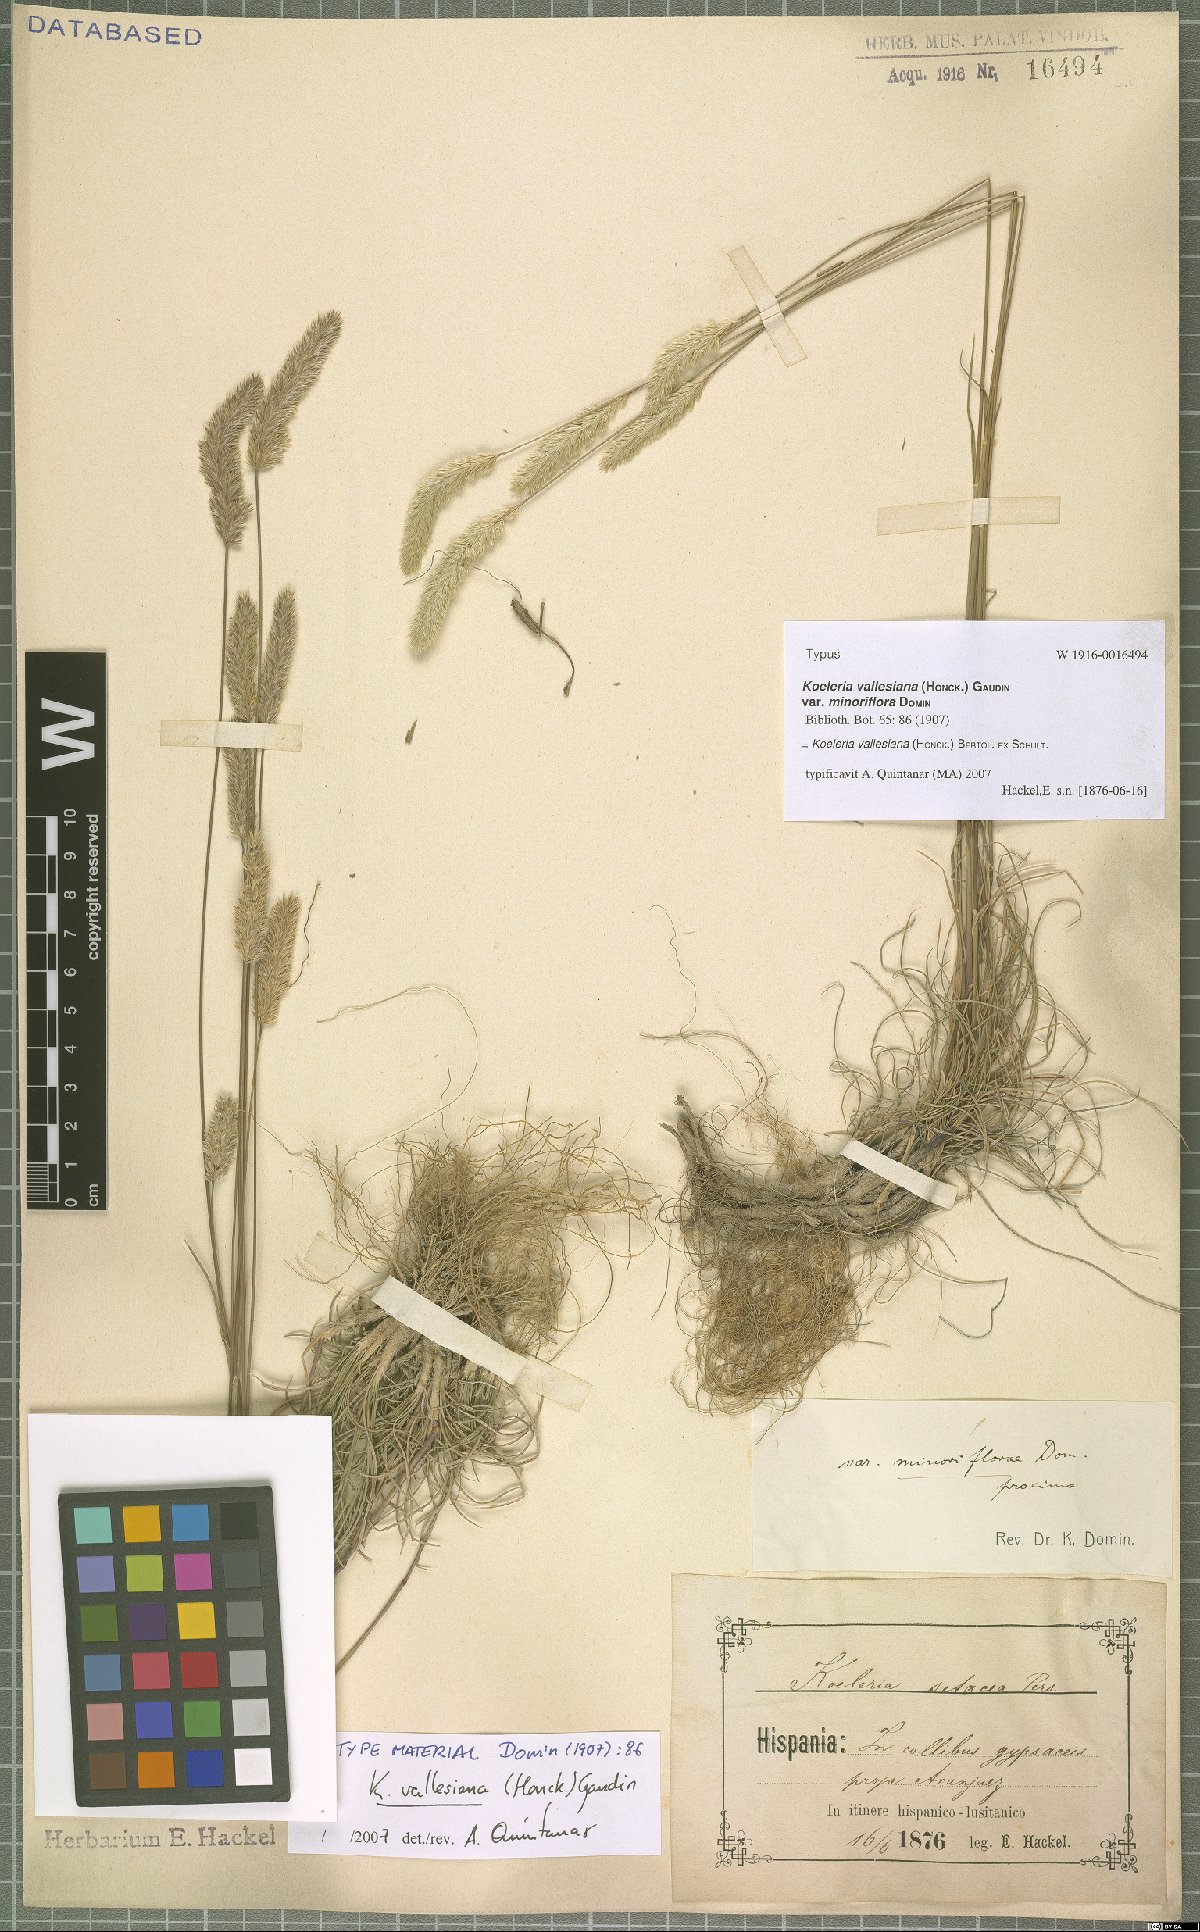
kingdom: Plantae
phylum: Tracheophyta
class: Liliopsida
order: Poales
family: Poaceae
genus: Koeleria
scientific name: Koeleria vallesiana
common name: Somerset hair-grass
